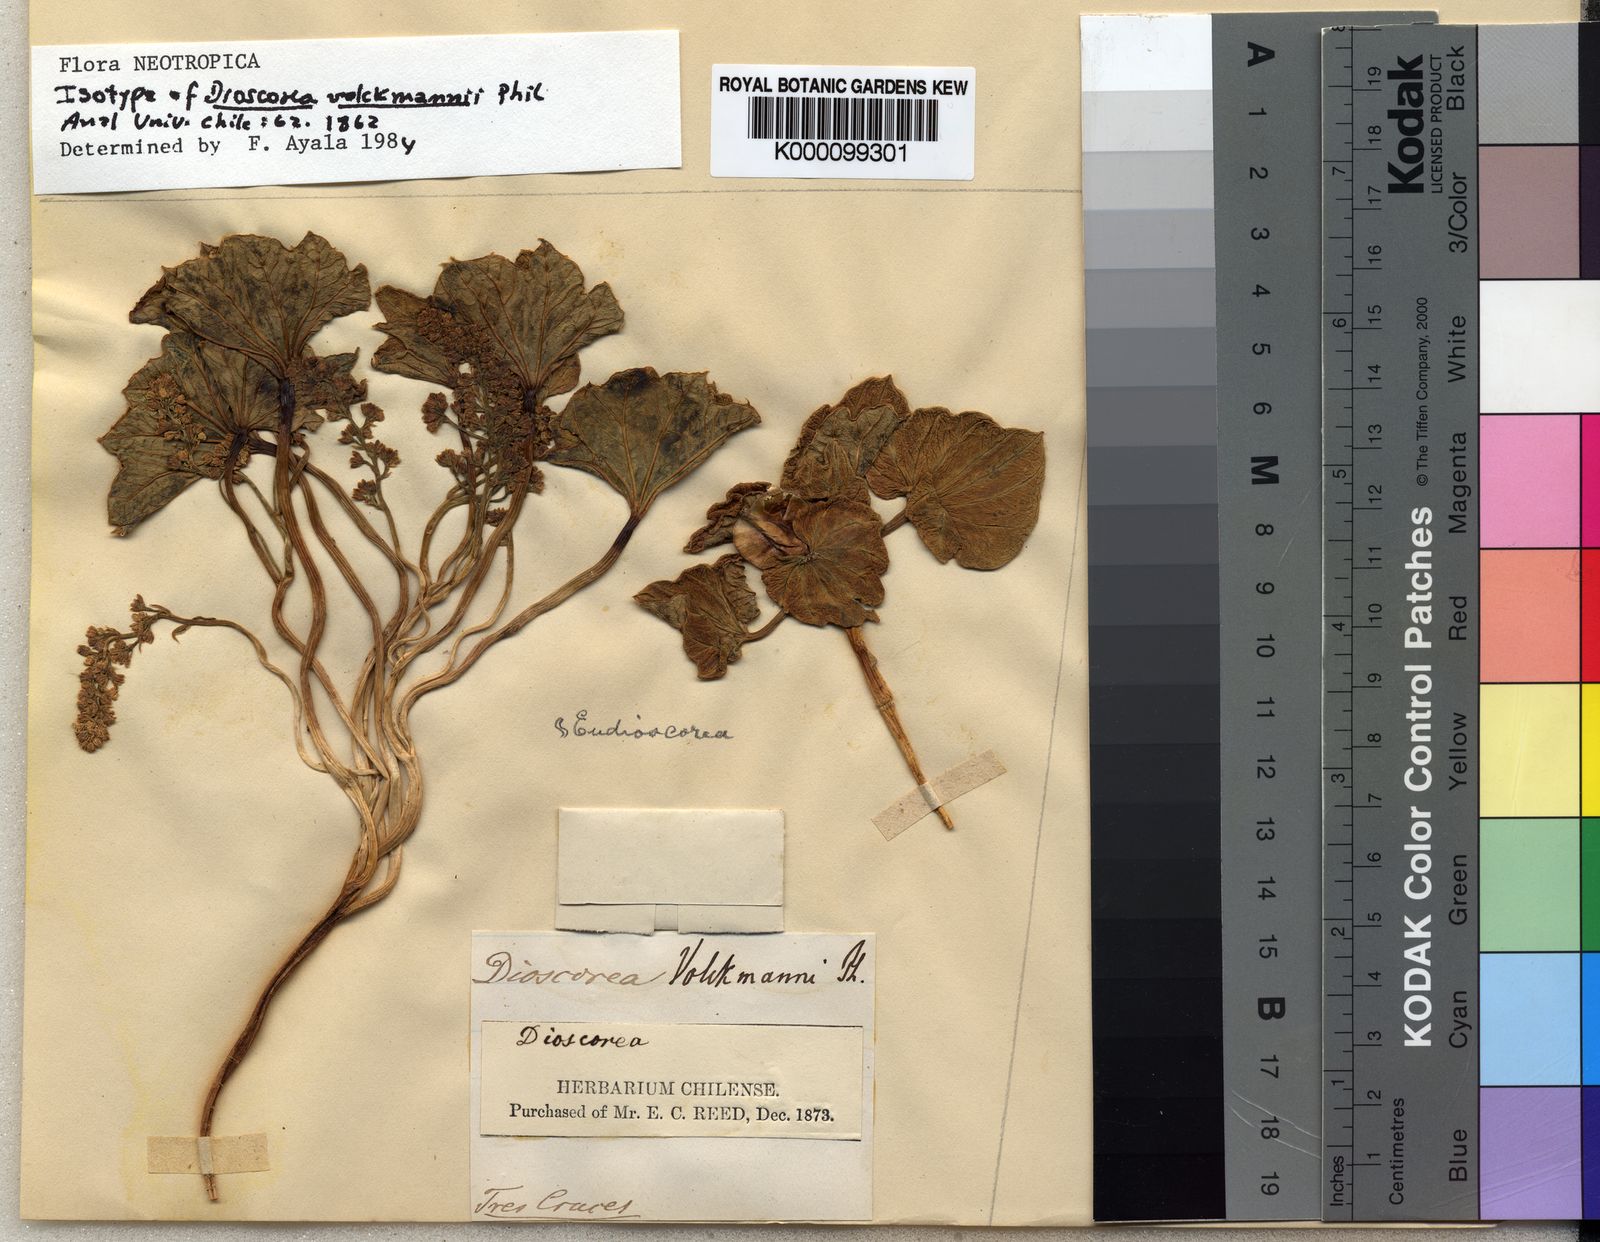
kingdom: Plantae
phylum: Tracheophyta
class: Liliopsida
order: Dioscoreales
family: Dioscoreaceae
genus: Dioscorea
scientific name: Dioscorea volckmannii
